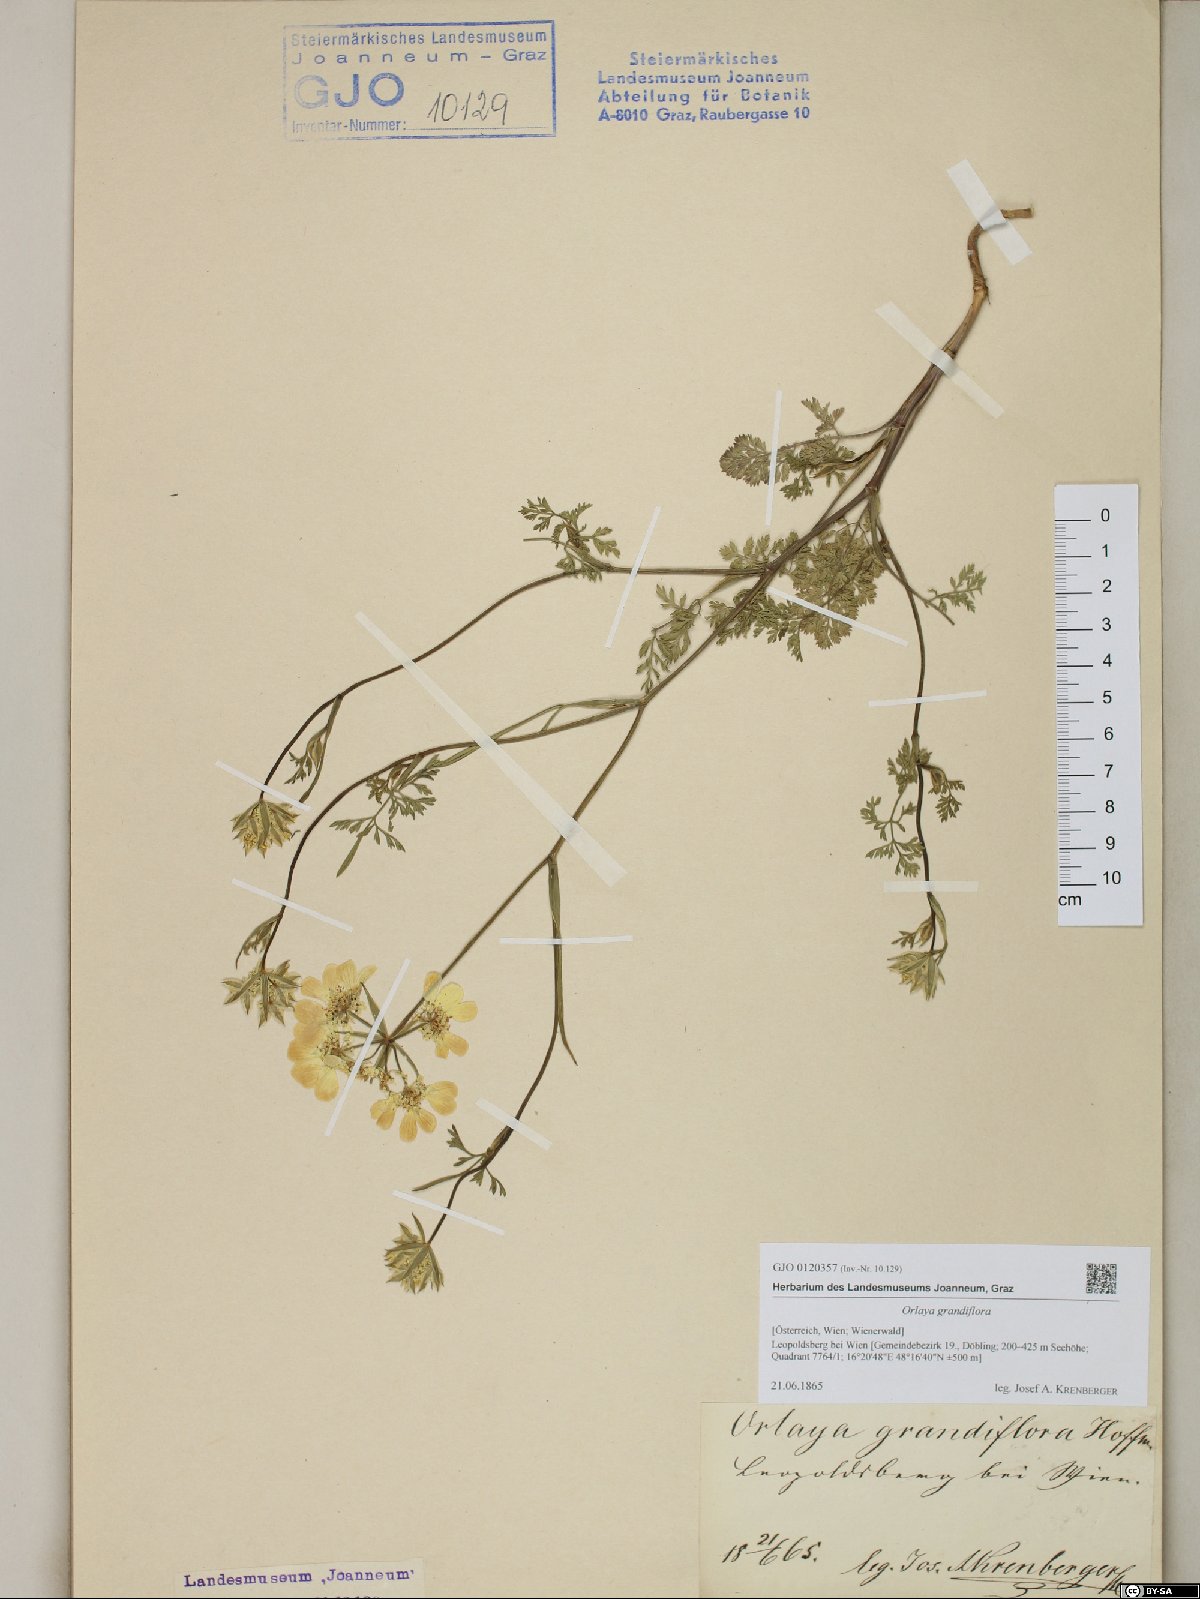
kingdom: Plantae
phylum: Tracheophyta
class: Magnoliopsida
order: Apiales
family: Apiaceae
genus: Orlaya
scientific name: Orlaya grandiflora
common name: White lace flower
